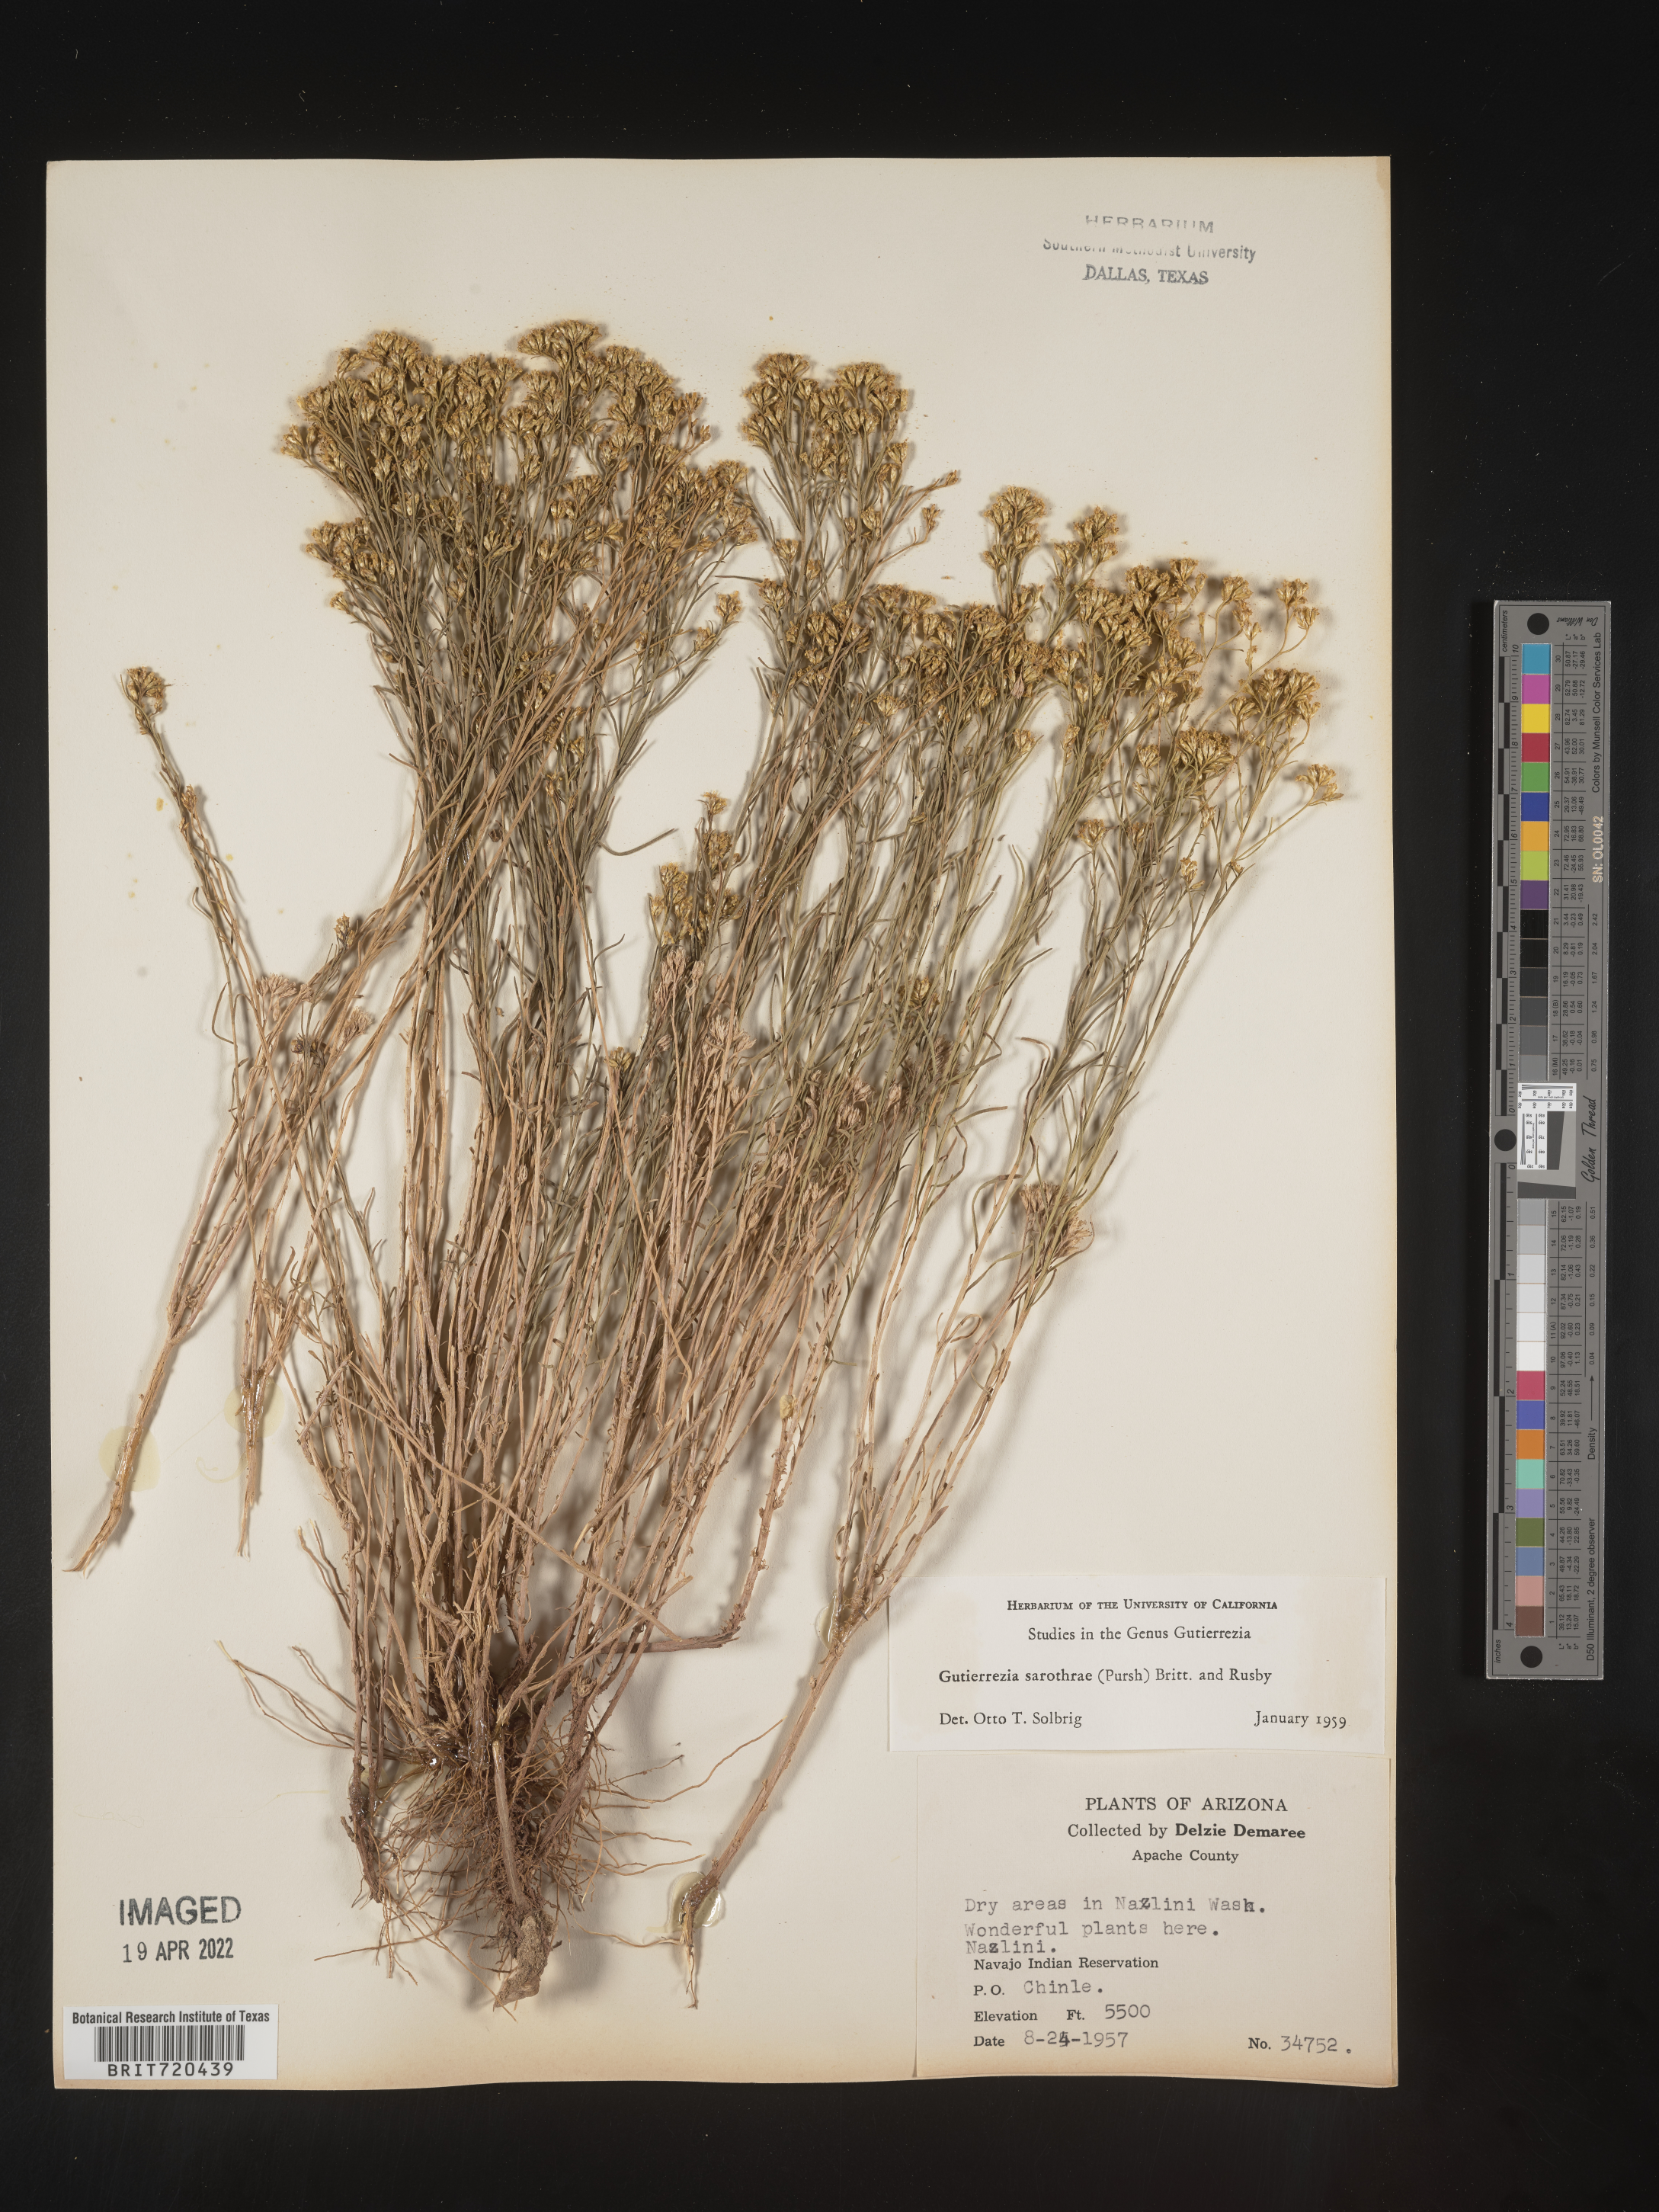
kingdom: Plantae
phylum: Tracheophyta
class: Magnoliopsida
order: Asterales
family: Asteraceae
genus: Gutierrezia
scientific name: Gutierrezia sarothrae
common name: Broom snakeweed
